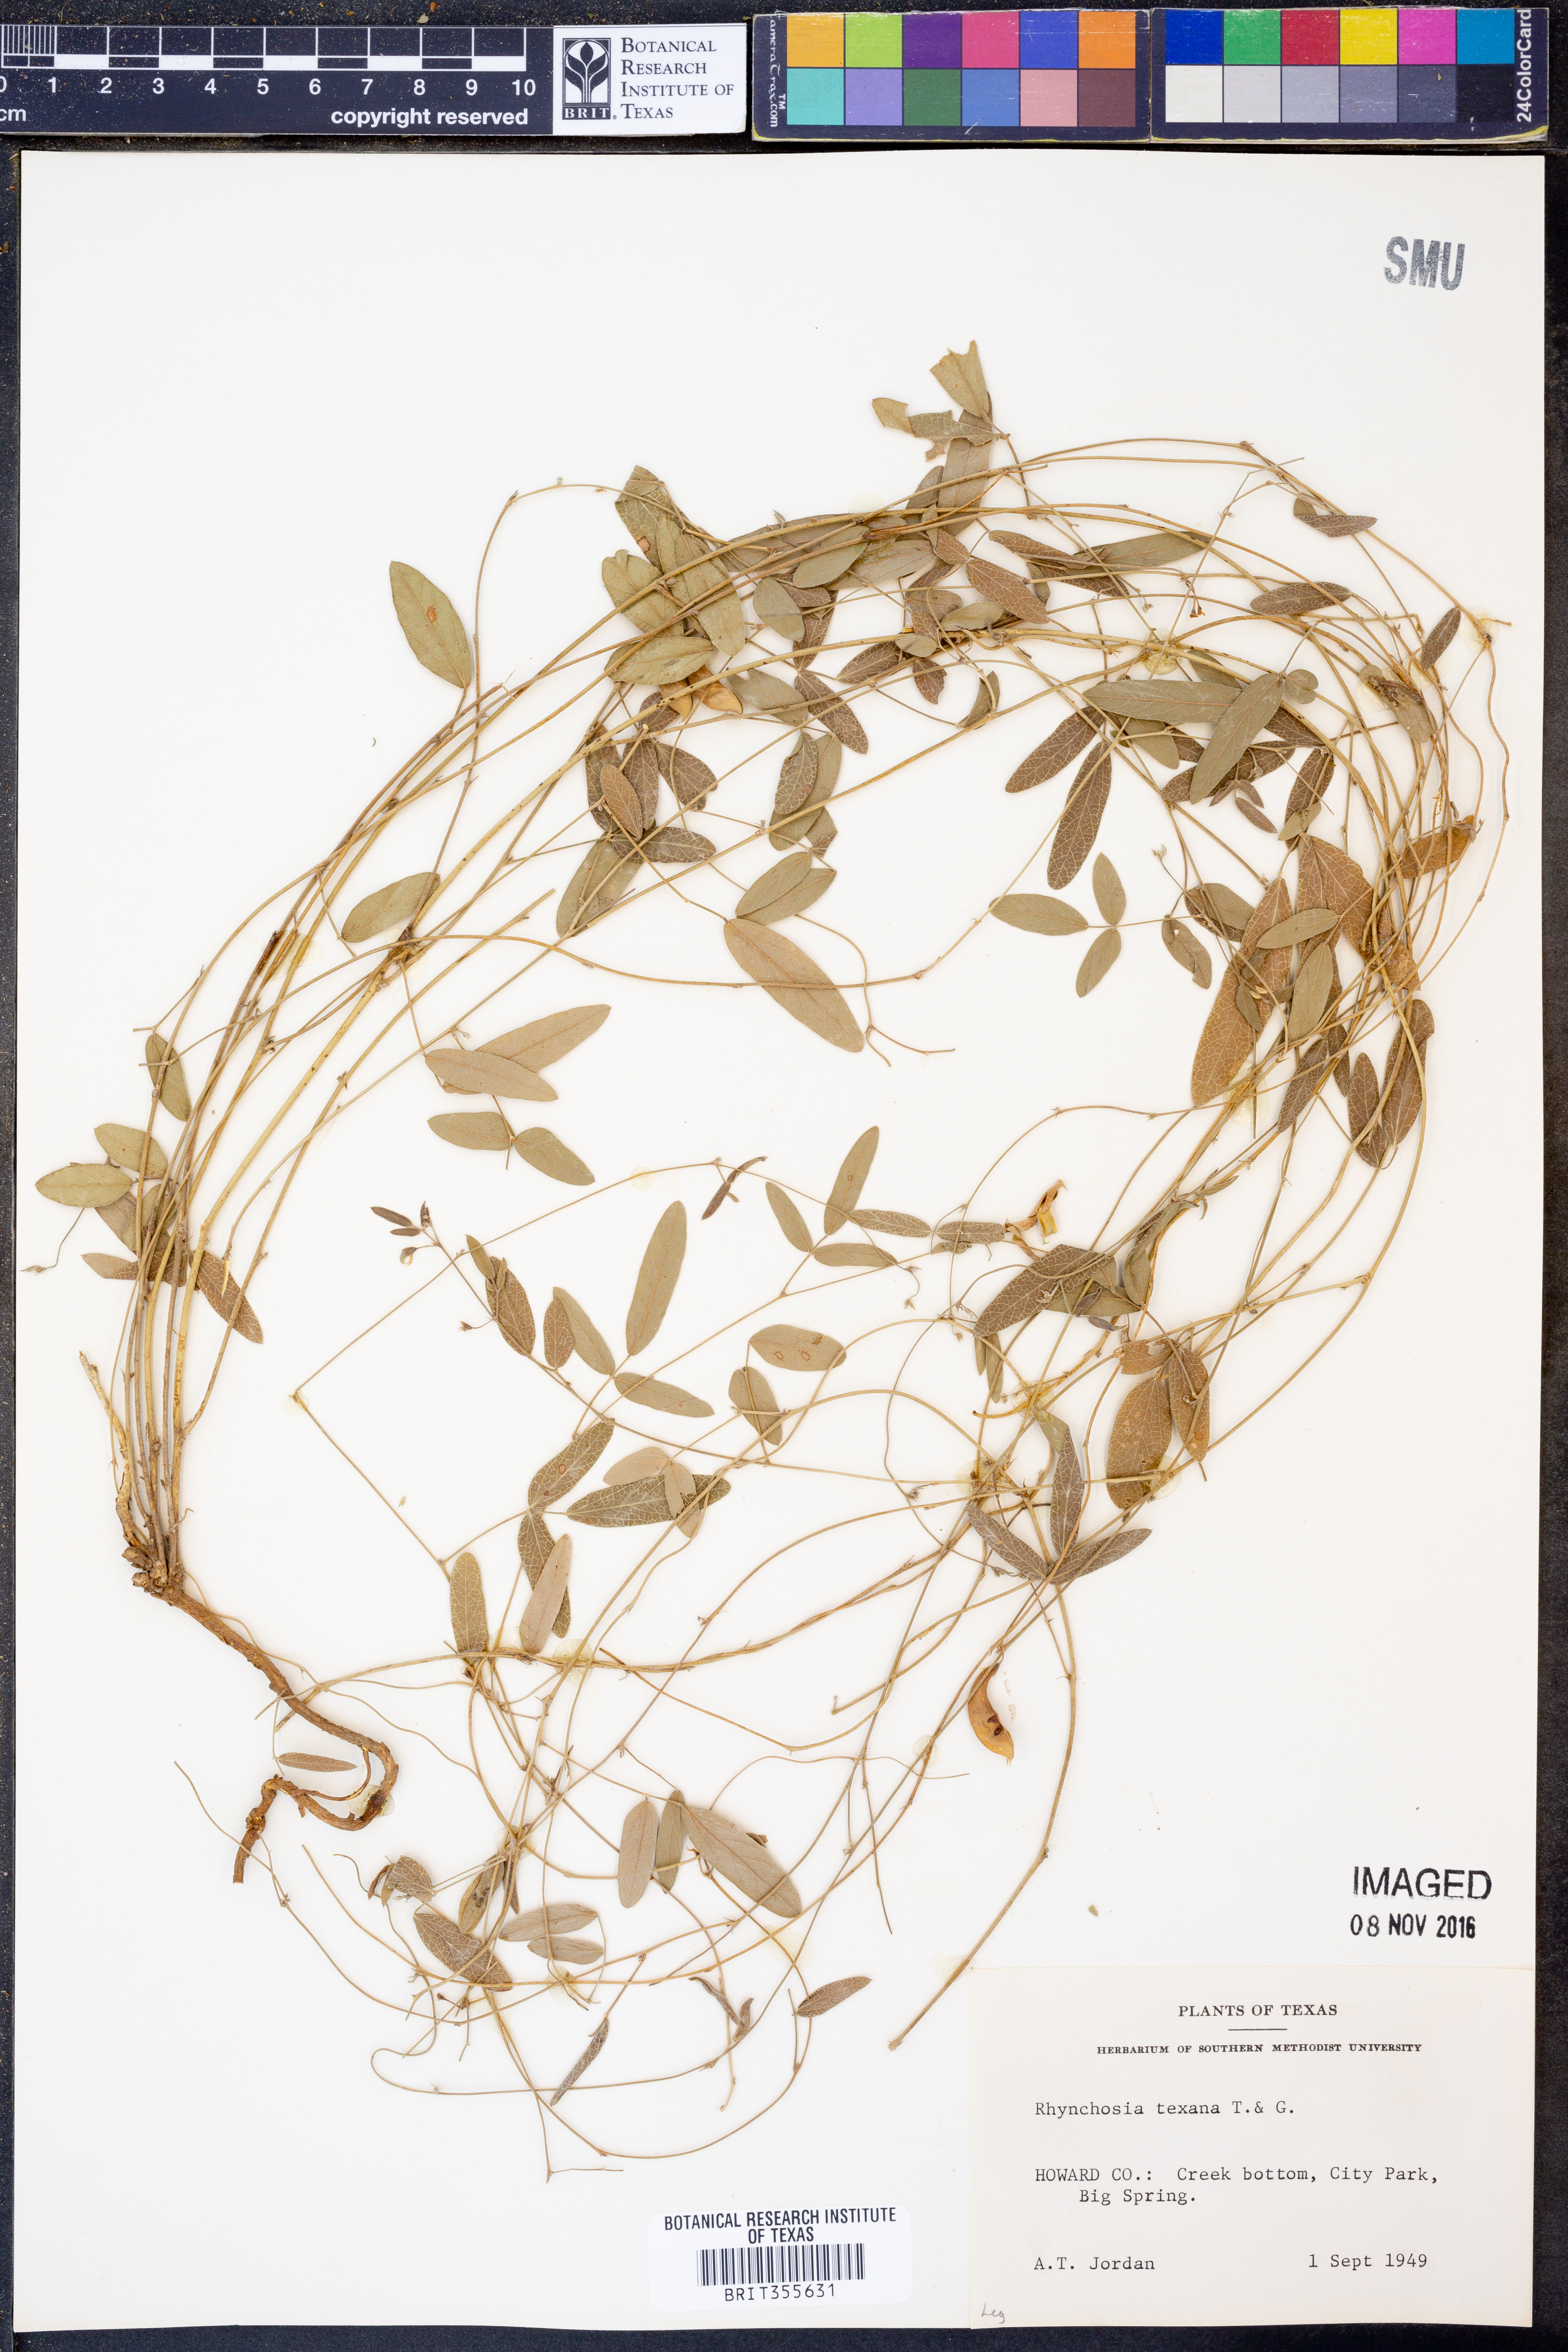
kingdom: Plantae
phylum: Tracheophyta
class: Magnoliopsida
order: Fabales
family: Fabaceae
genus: Rhynchosia
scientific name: Rhynchosia senna
